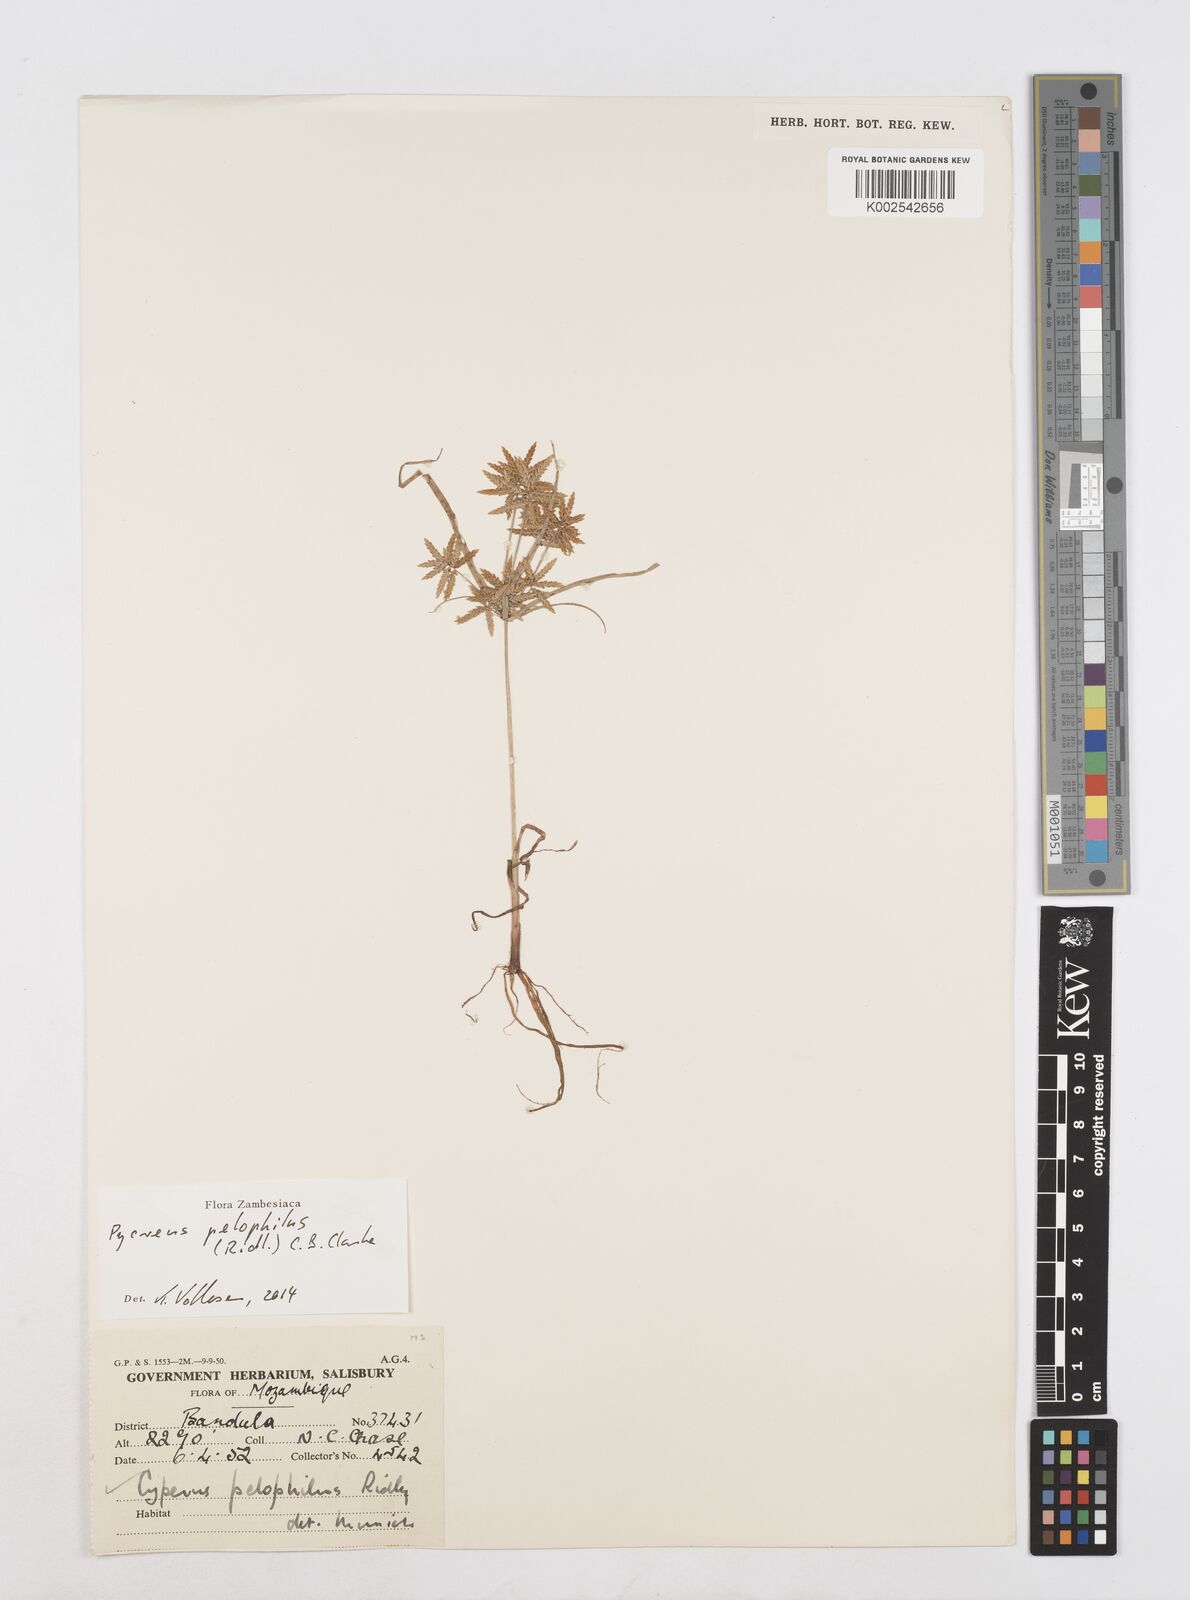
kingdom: Plantae
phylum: Tracheophyta
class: Liliopsida
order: Poales
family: Cyperaceae
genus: Cyperus
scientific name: Cyperus pelophilus
